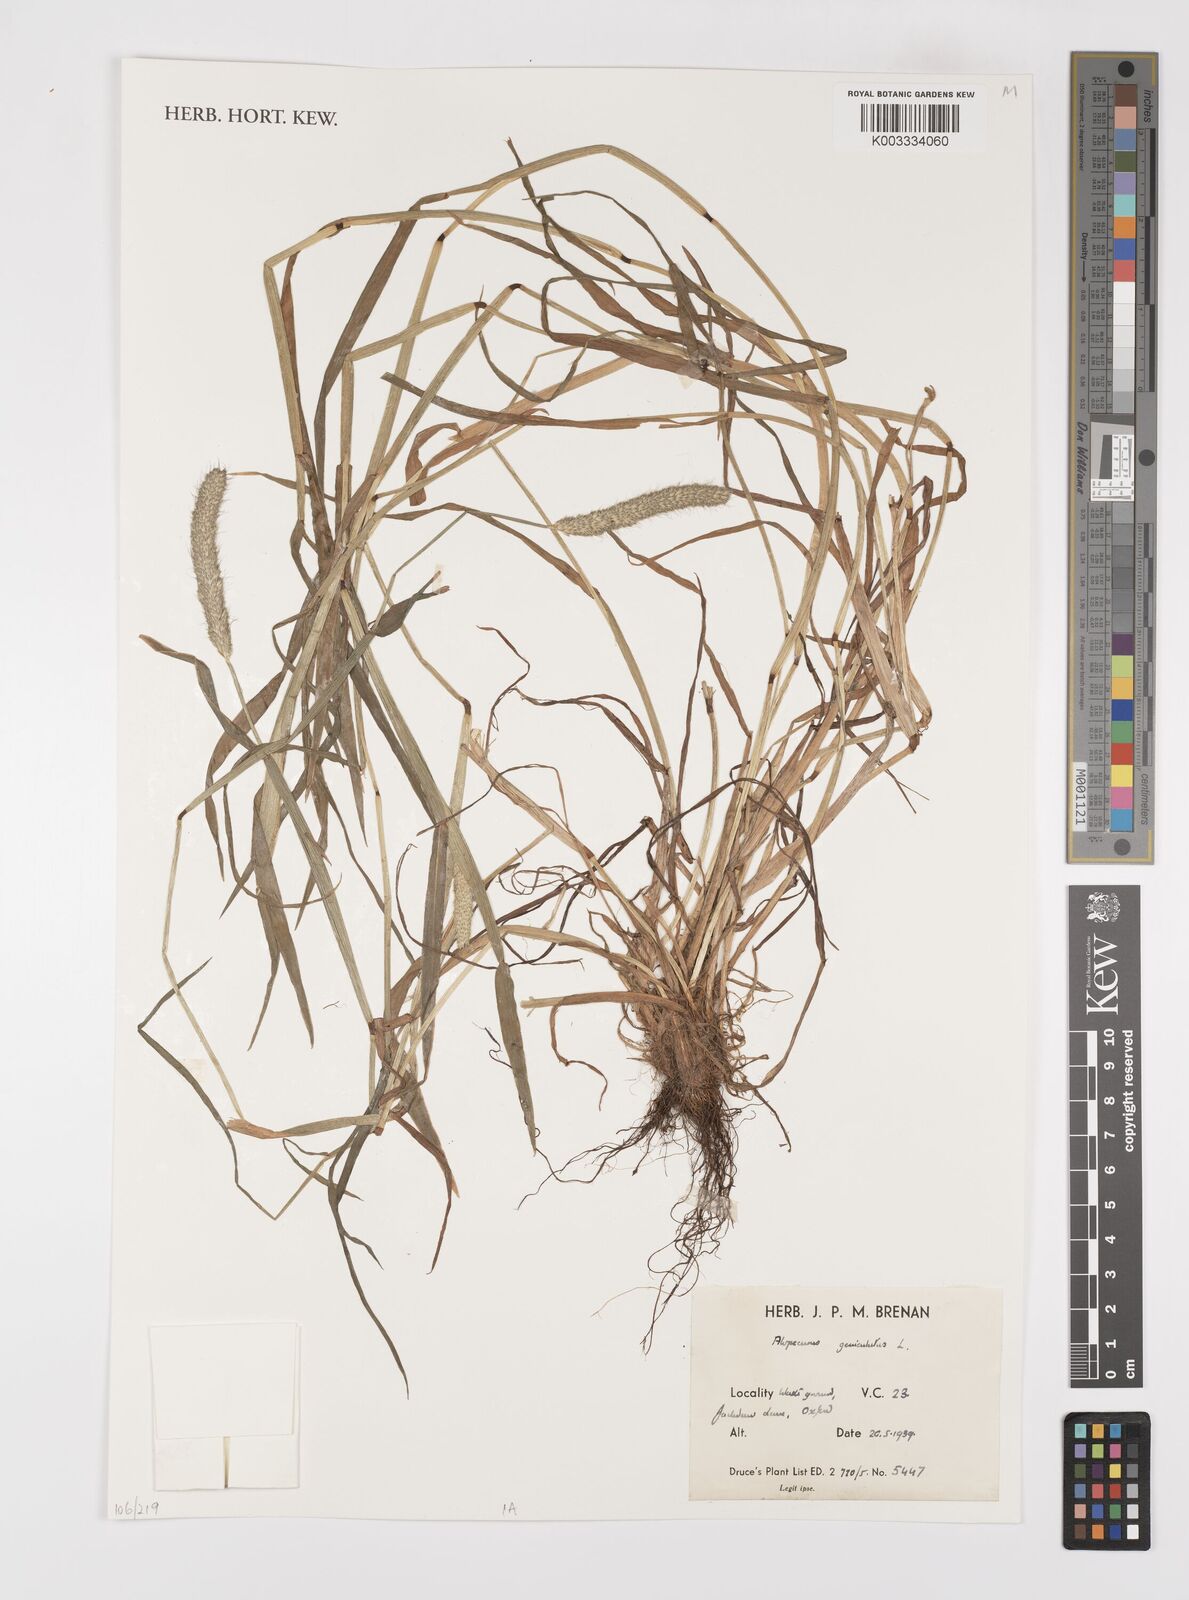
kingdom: Plantae
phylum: Tracheophyta
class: Liliopsida
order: Poales
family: Poaceae
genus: Alopecurus
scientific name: Alopecurus geniculatus
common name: Water foxtail
